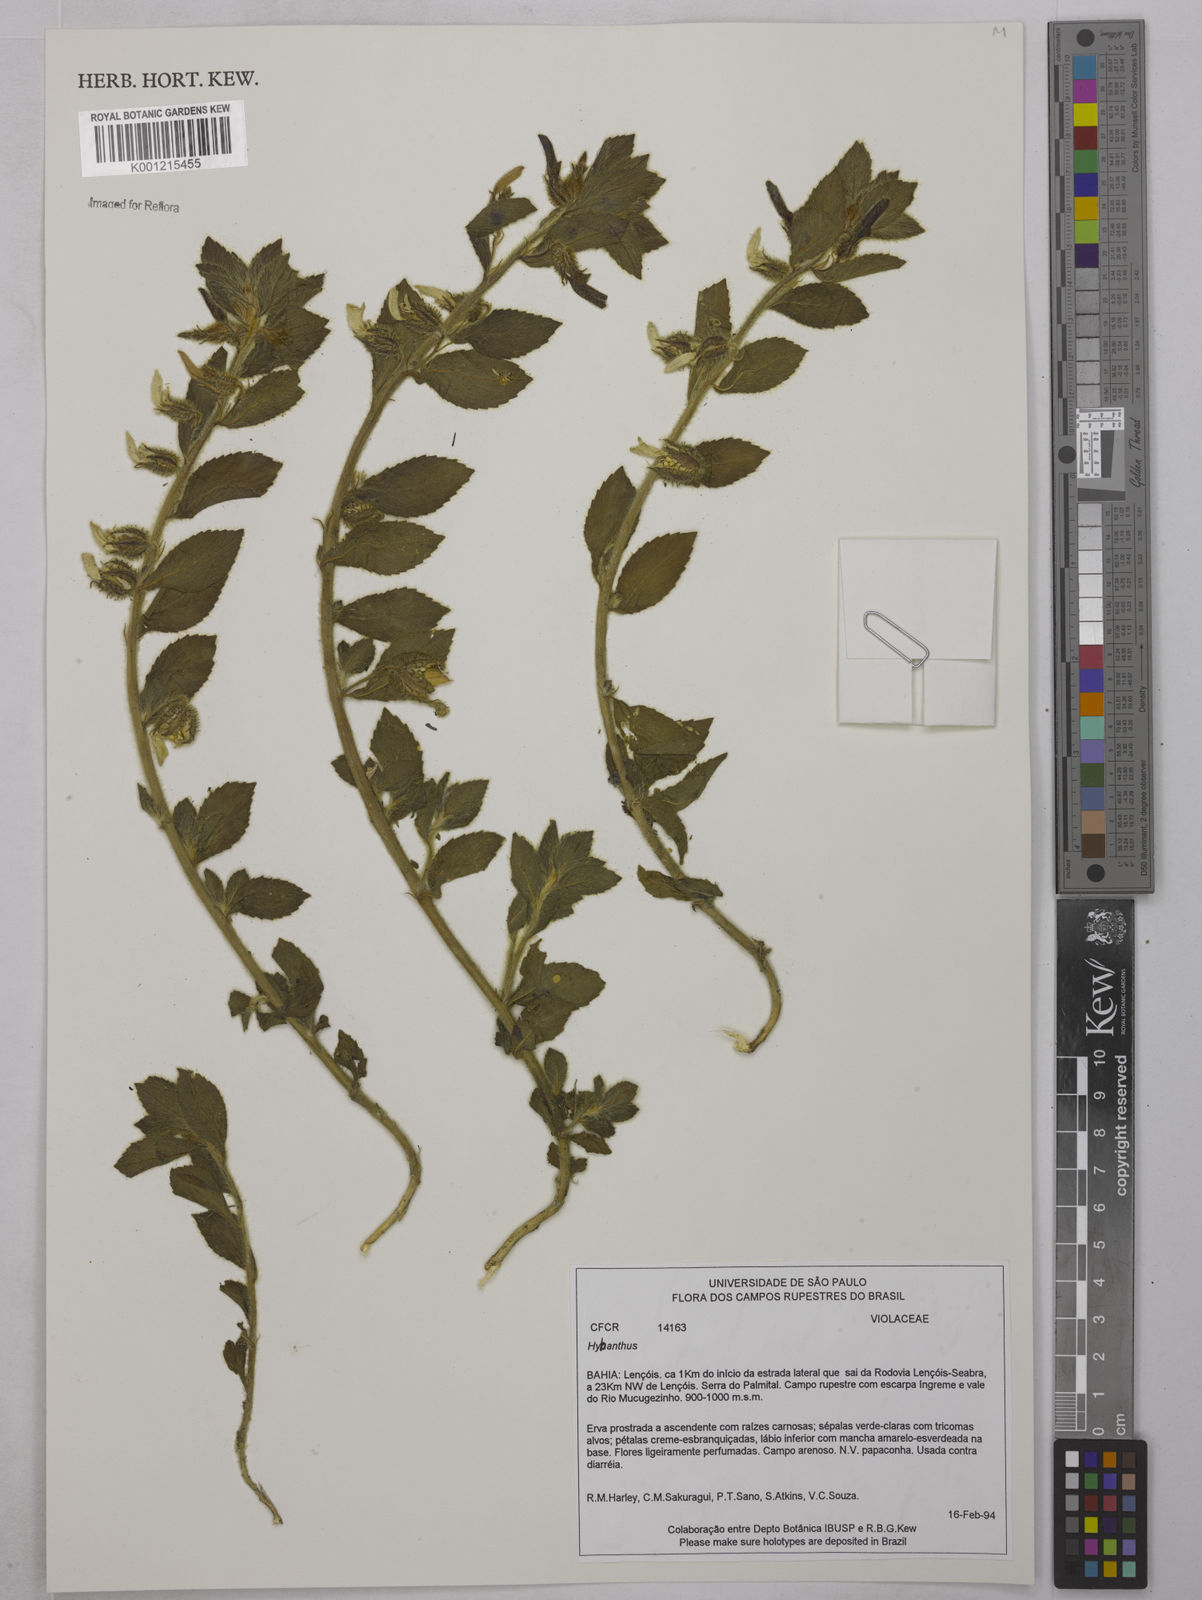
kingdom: Plantae
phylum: Tracheophyta
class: Magnoliopsida
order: Malpighiales
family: Violaceae
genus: Hybanthus
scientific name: Hybanthus
